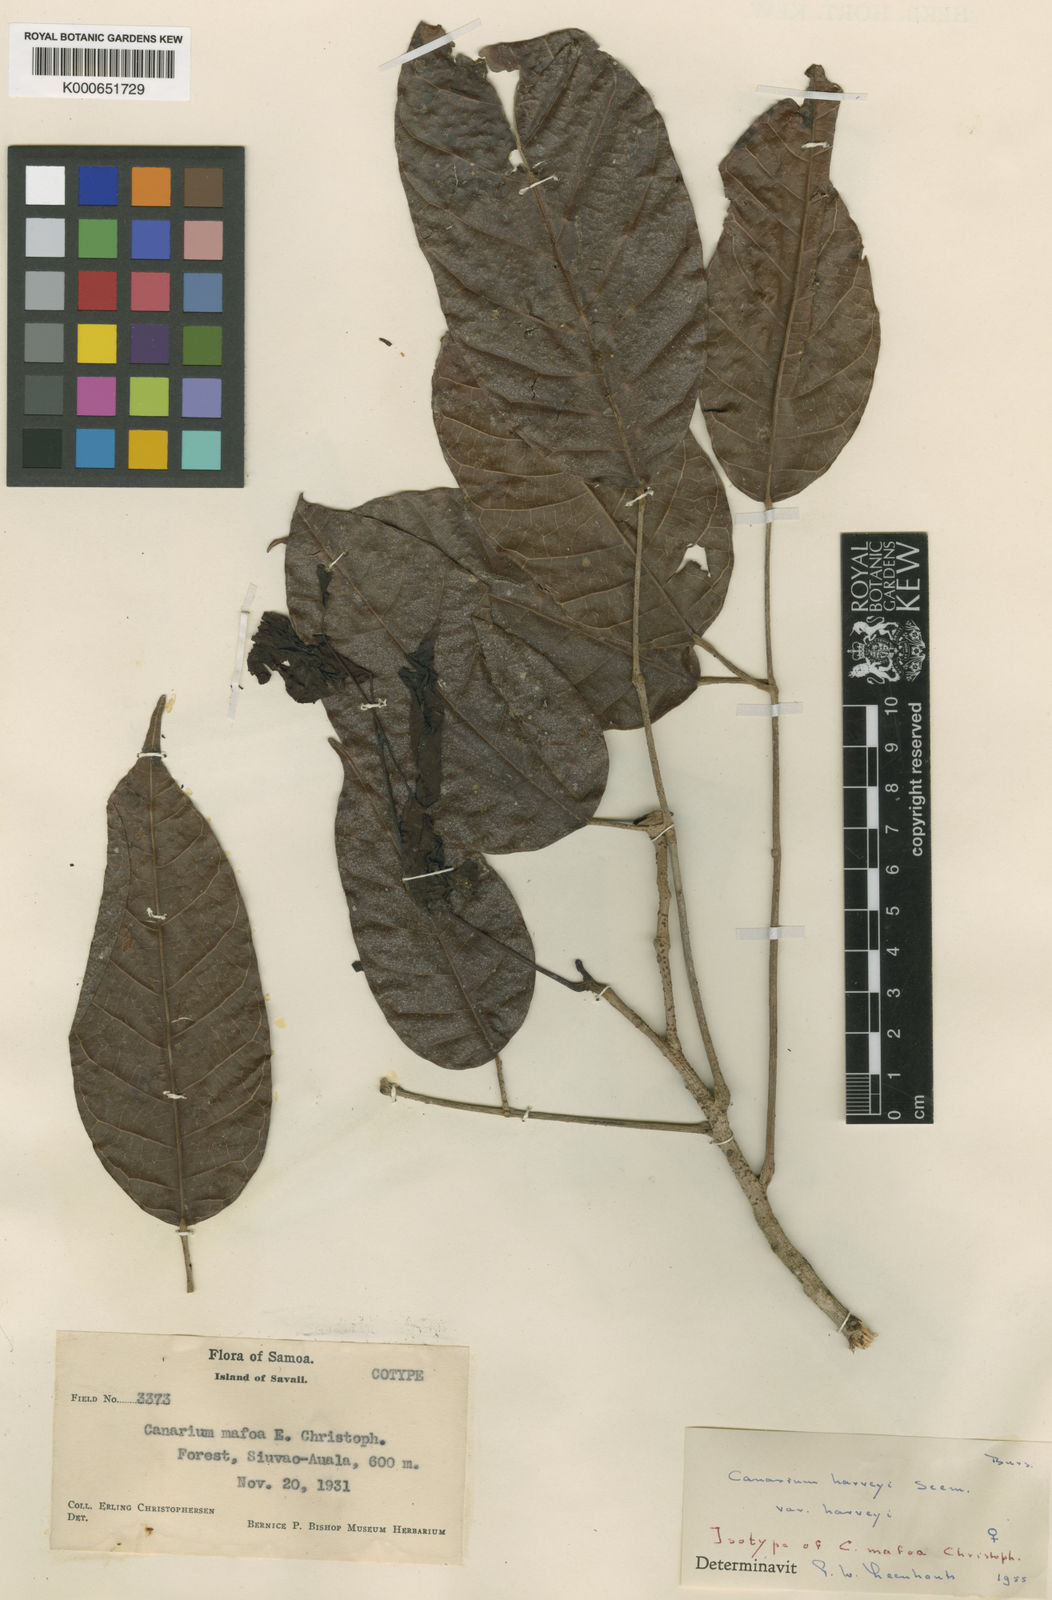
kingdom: Plantae
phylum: Tracheophyta
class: Magnoliopsida
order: Sapindales
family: Burseraceae
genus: Canarium
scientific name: Canarium harveyi
